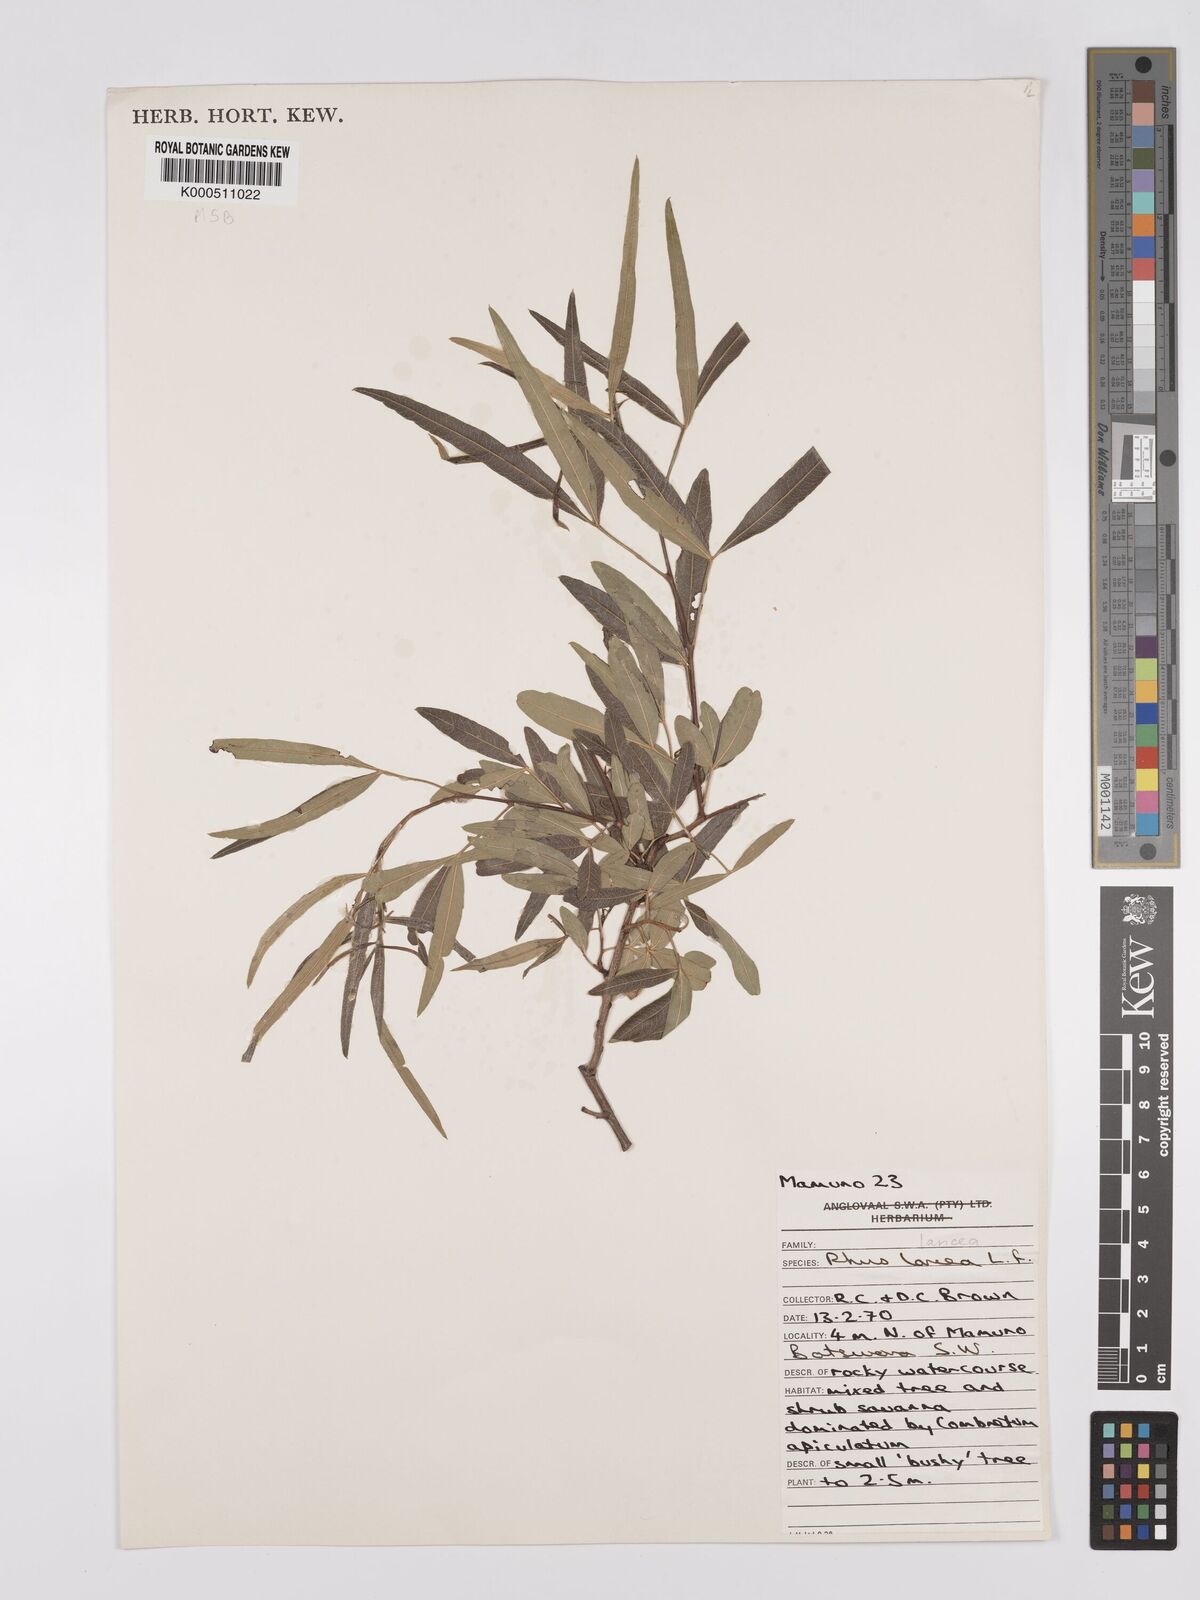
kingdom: Plantae
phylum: Tracheophyta
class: Magnoliopsida
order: Sapindales
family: Anacardiaceae
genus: Searsia
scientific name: Searsia lancea
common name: Cashew
